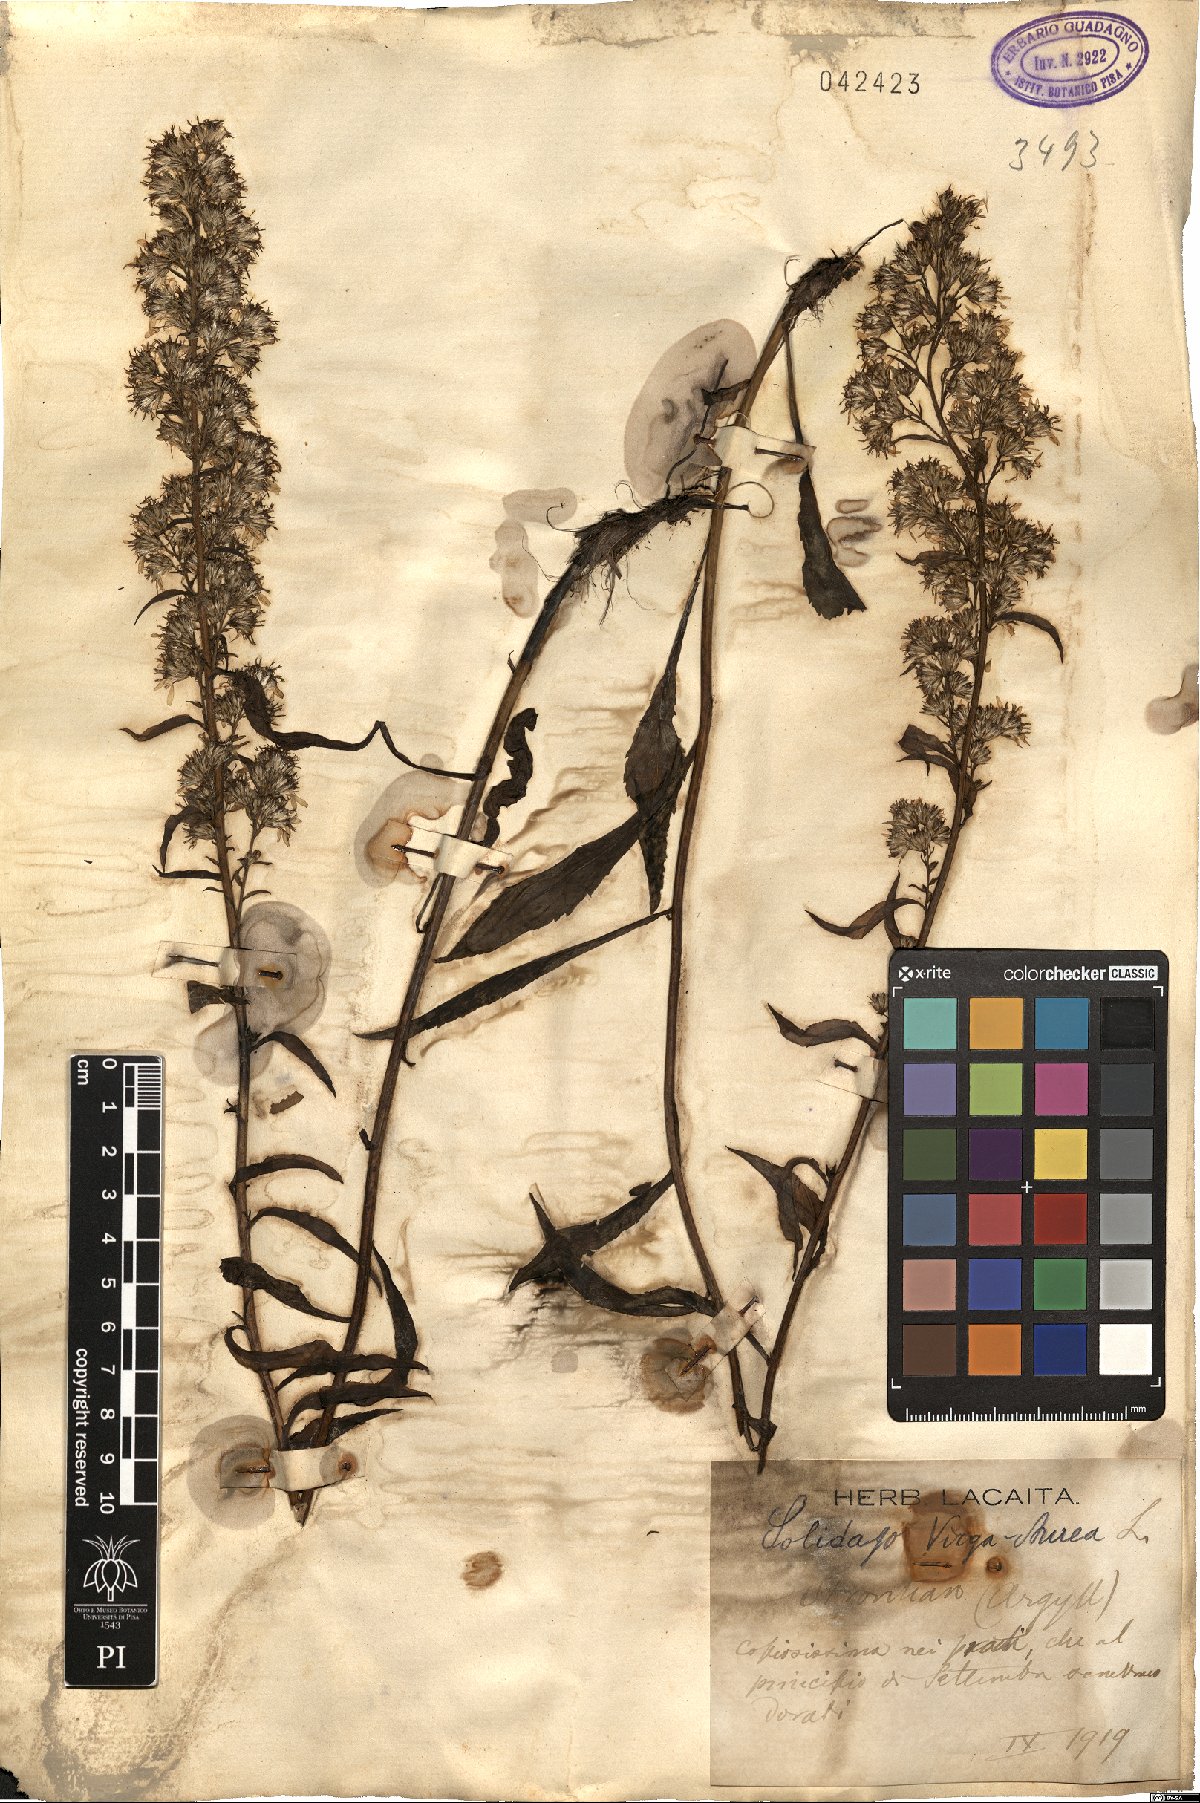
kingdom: Plantae
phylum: Tracheophyta
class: Magnoliopsida
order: Asterales
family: Asteraceae
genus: Solidago
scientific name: Solidago virgaurea
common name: Goldenrod
